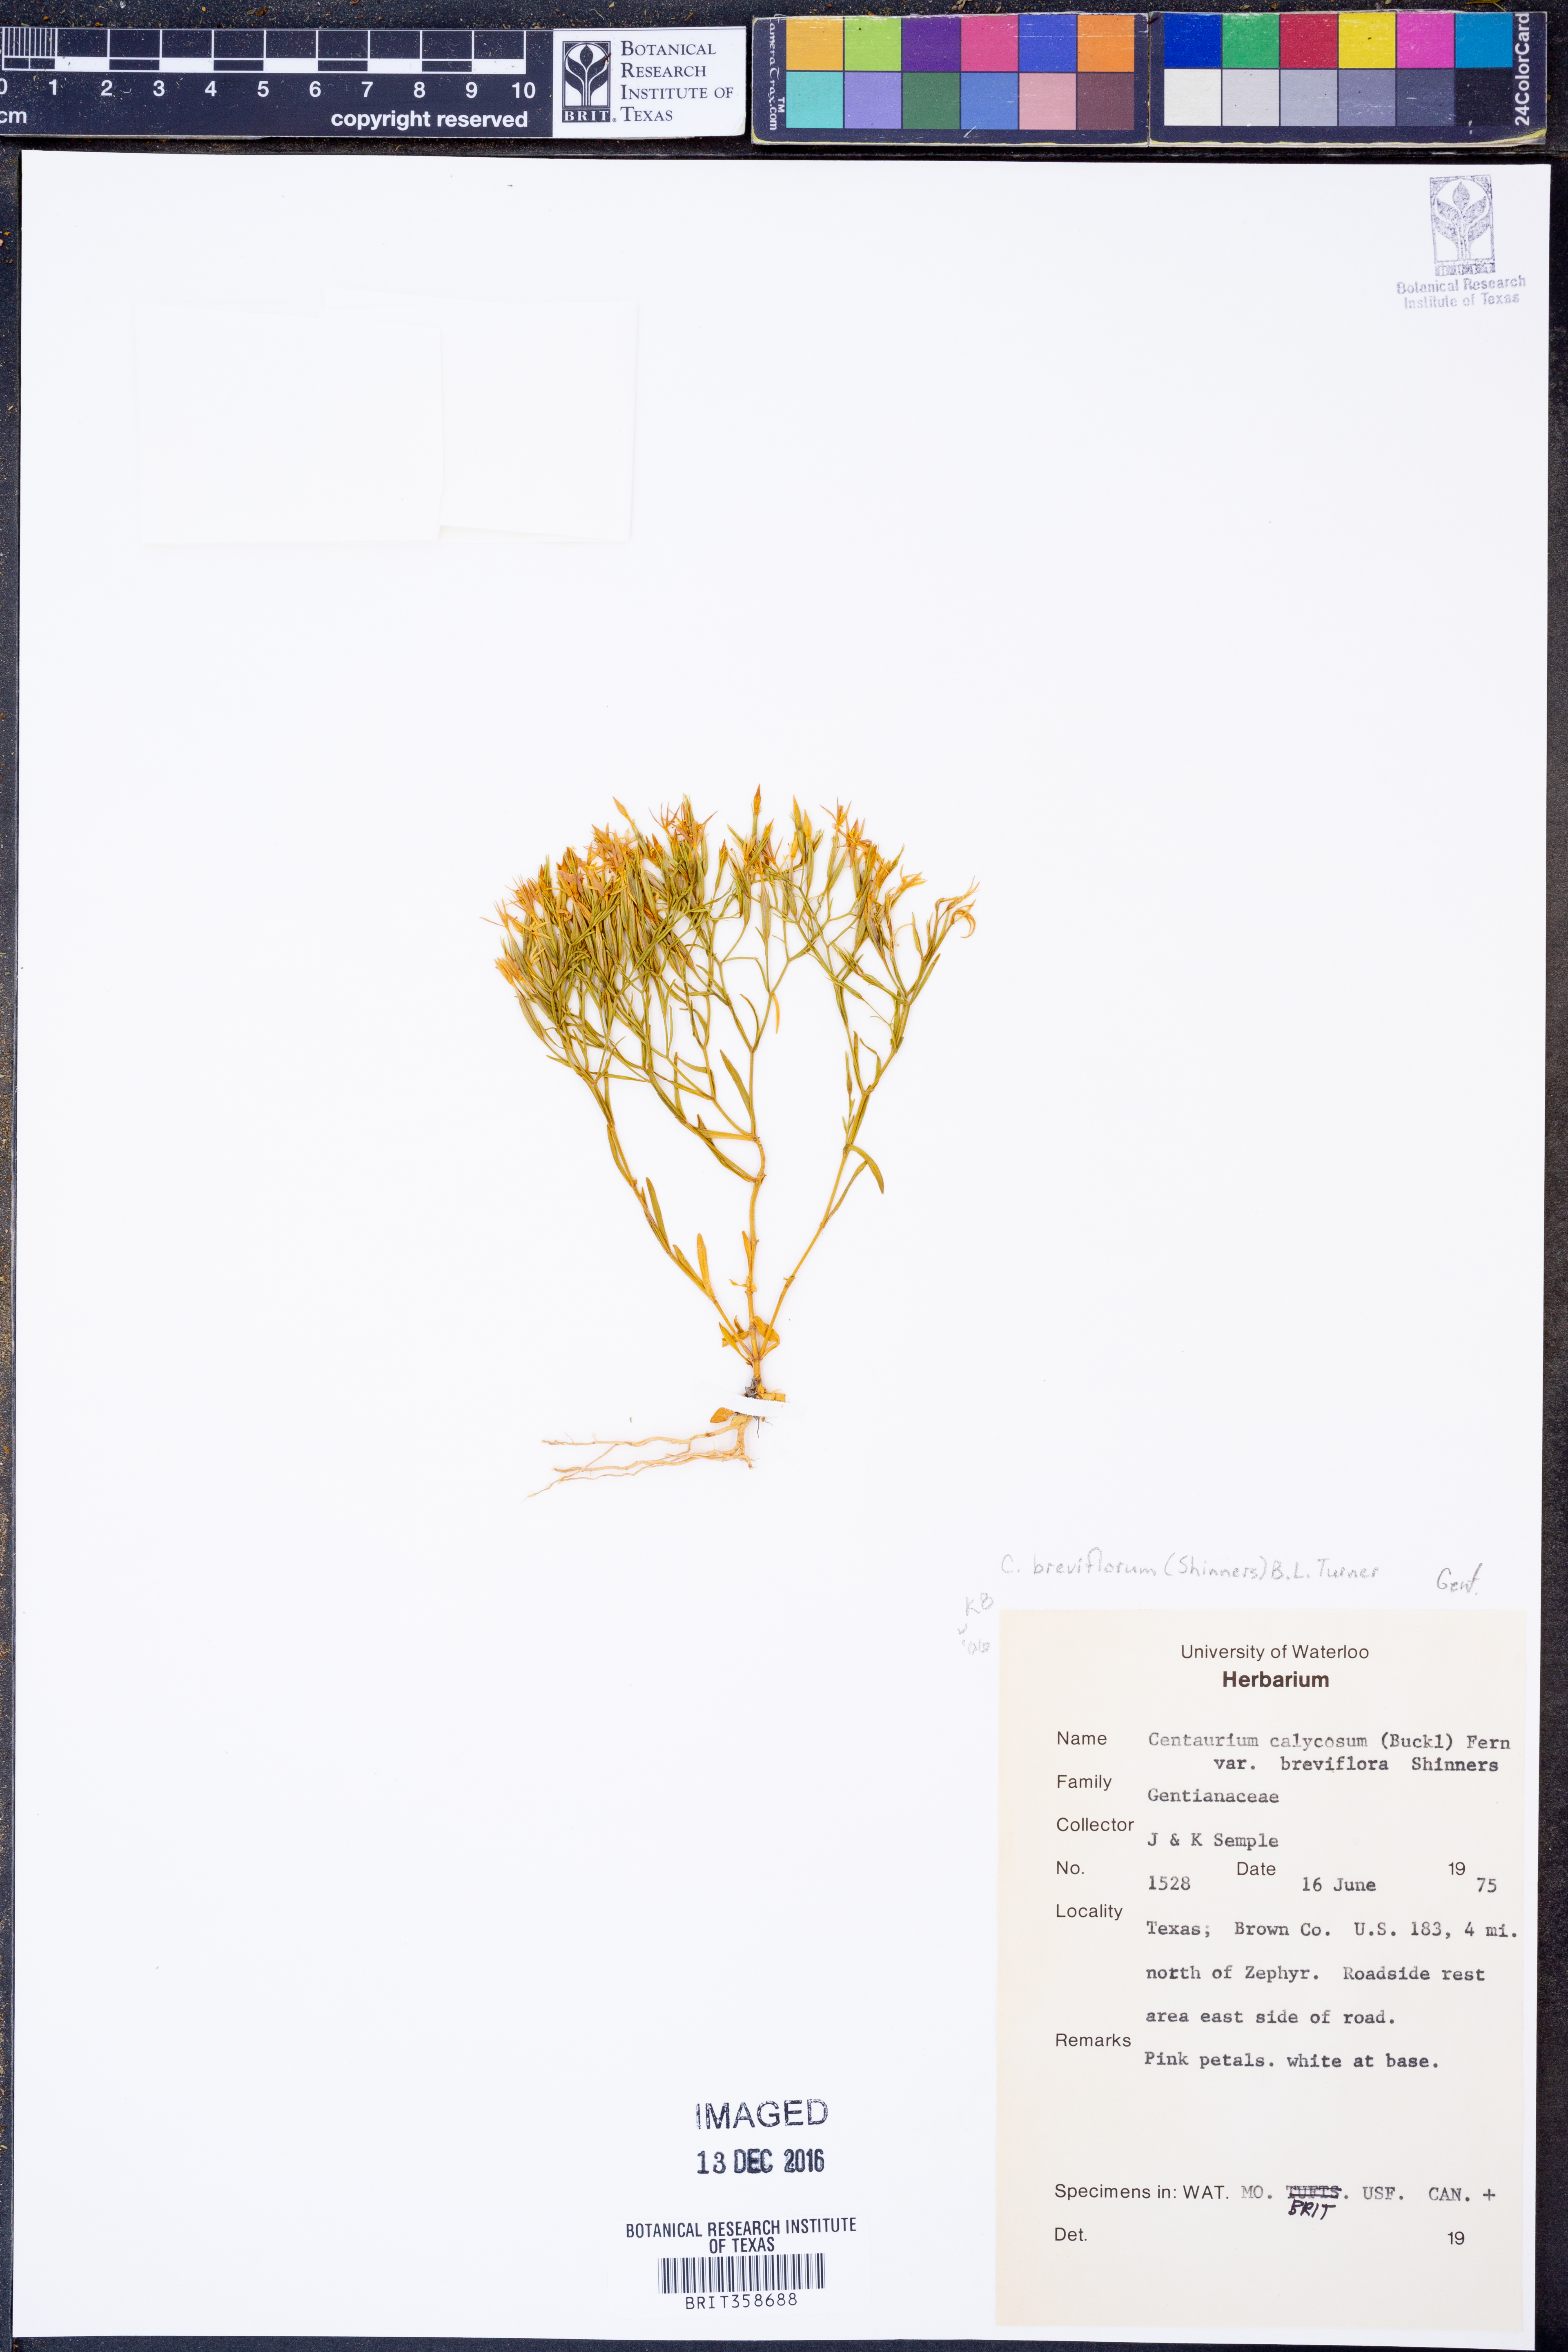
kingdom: Plantae
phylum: Tracheophyta
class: Magnoliopsida
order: Gentianales
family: Gentianaceae
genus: Zeltnera
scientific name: Zeltnera breviflora
